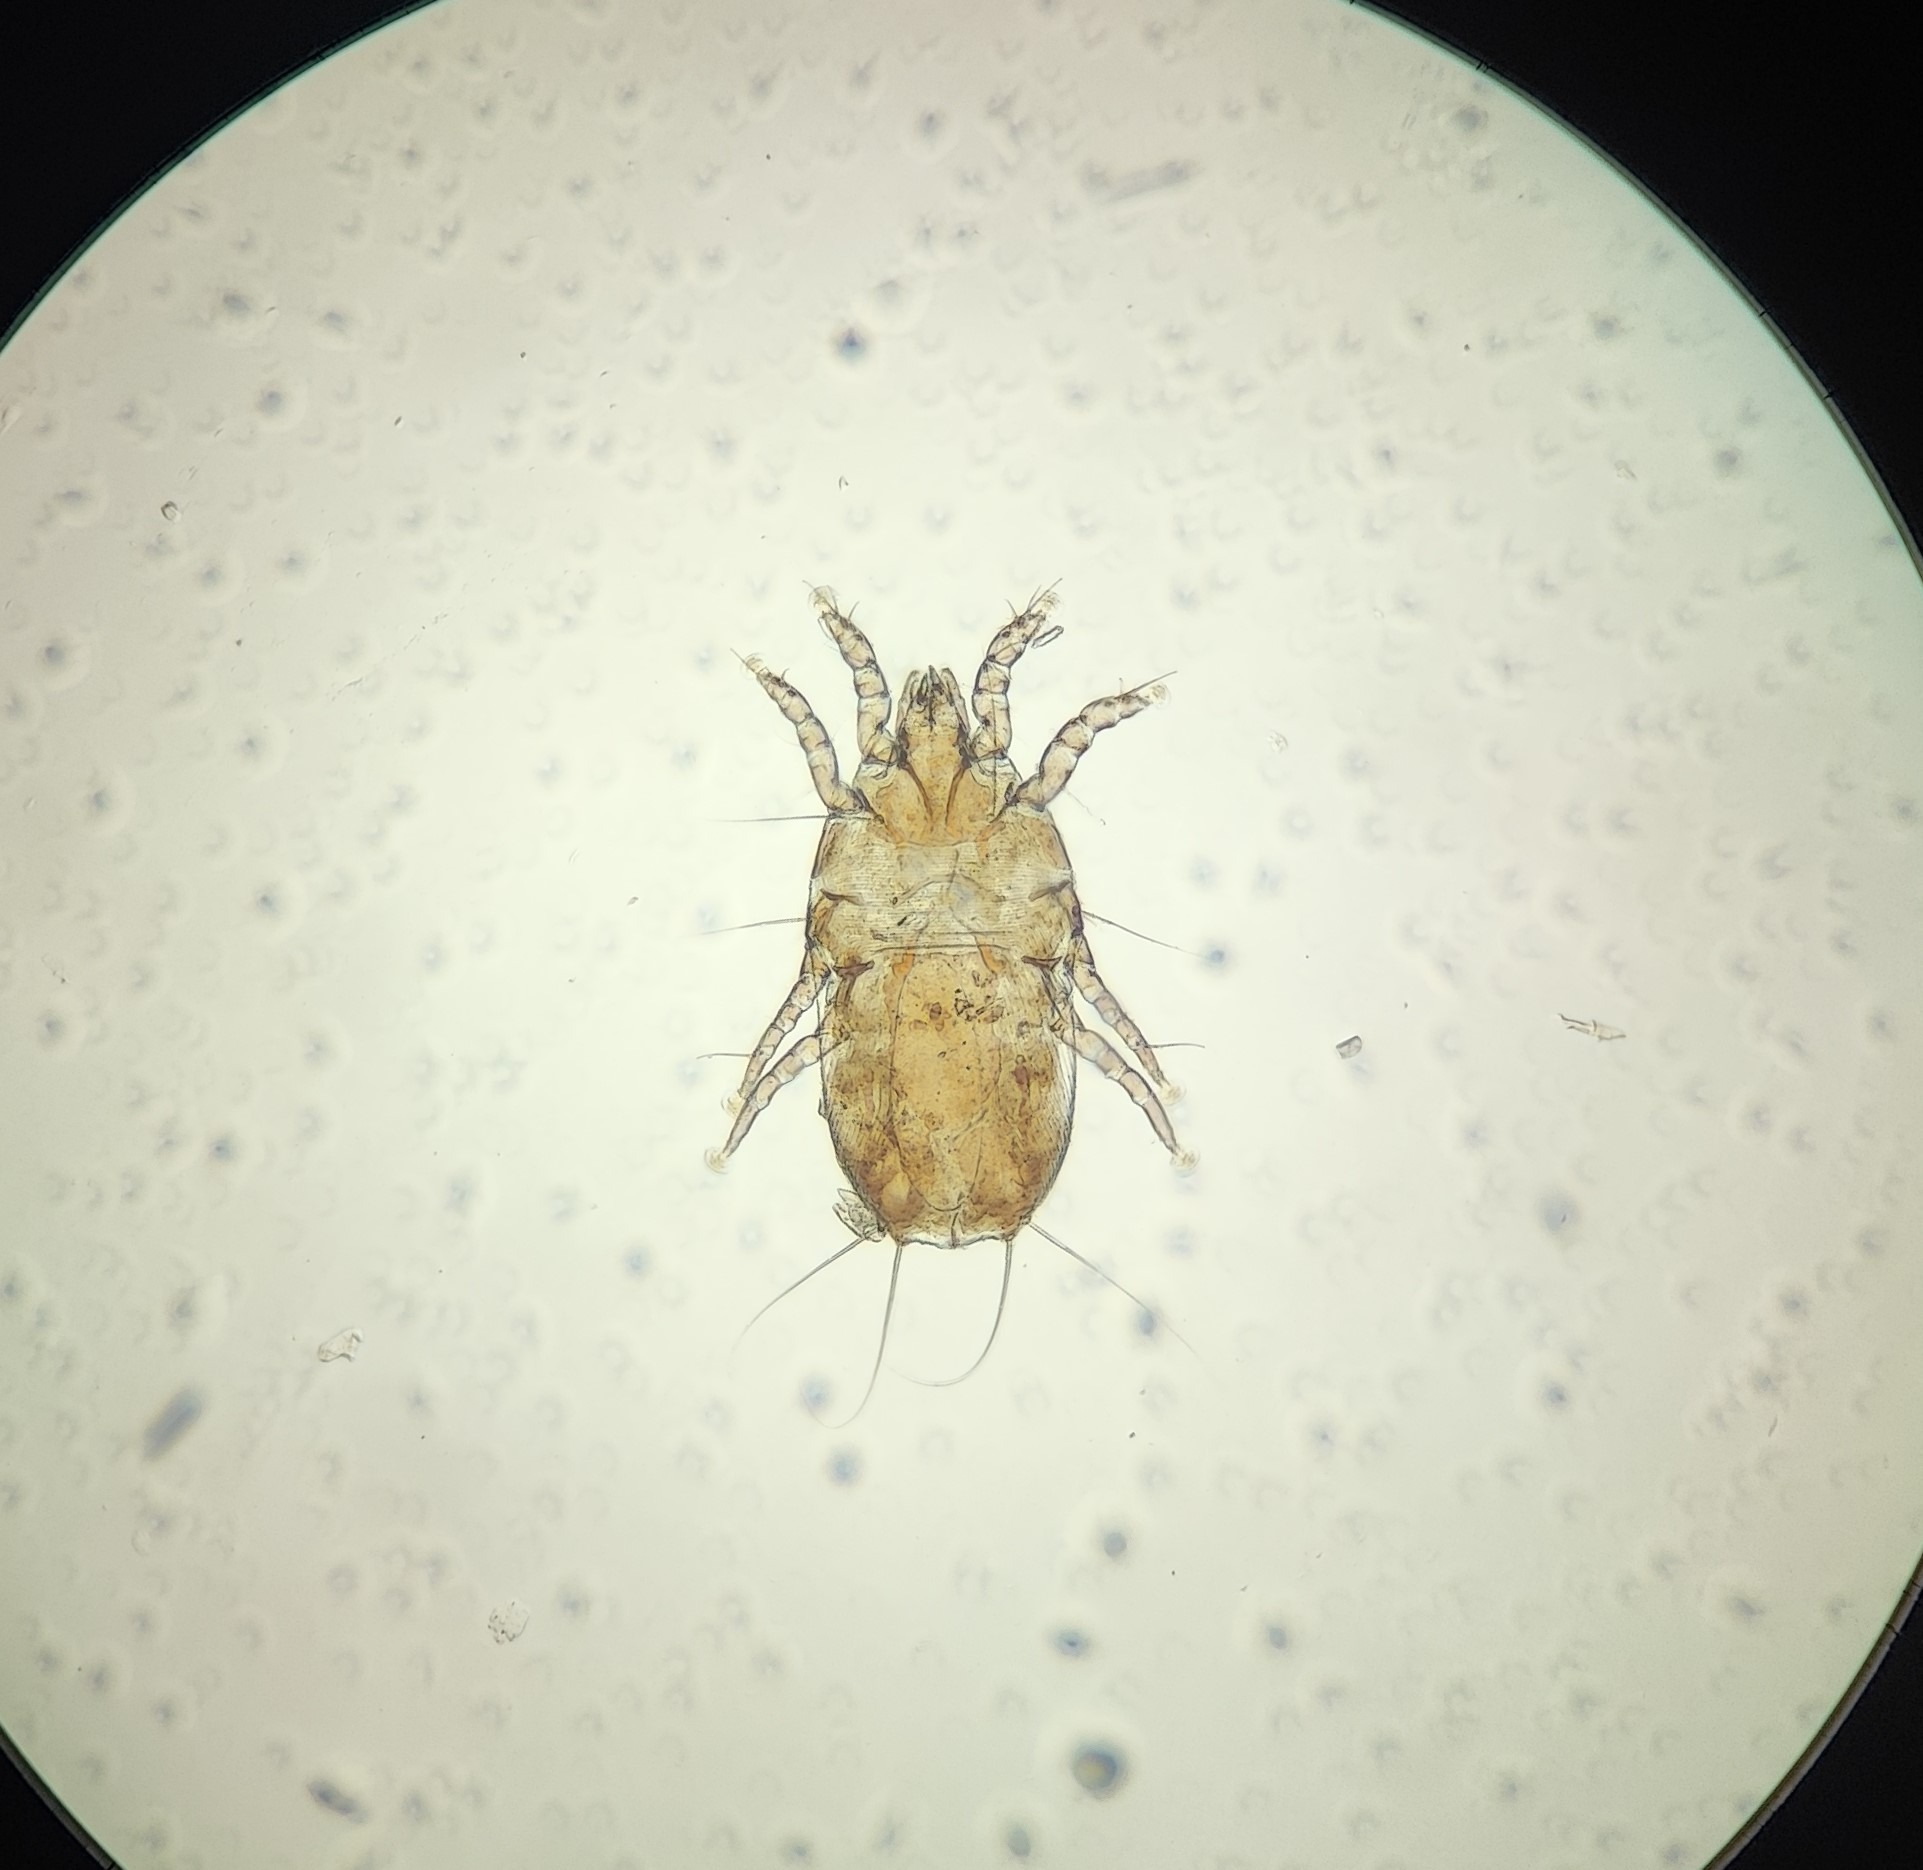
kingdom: Animalia
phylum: Arthropoda
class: Arachnida
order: Sarcoptiformes
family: Pteronyssidae
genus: Scutulanyssus
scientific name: Scutulanyssus hirundicola
